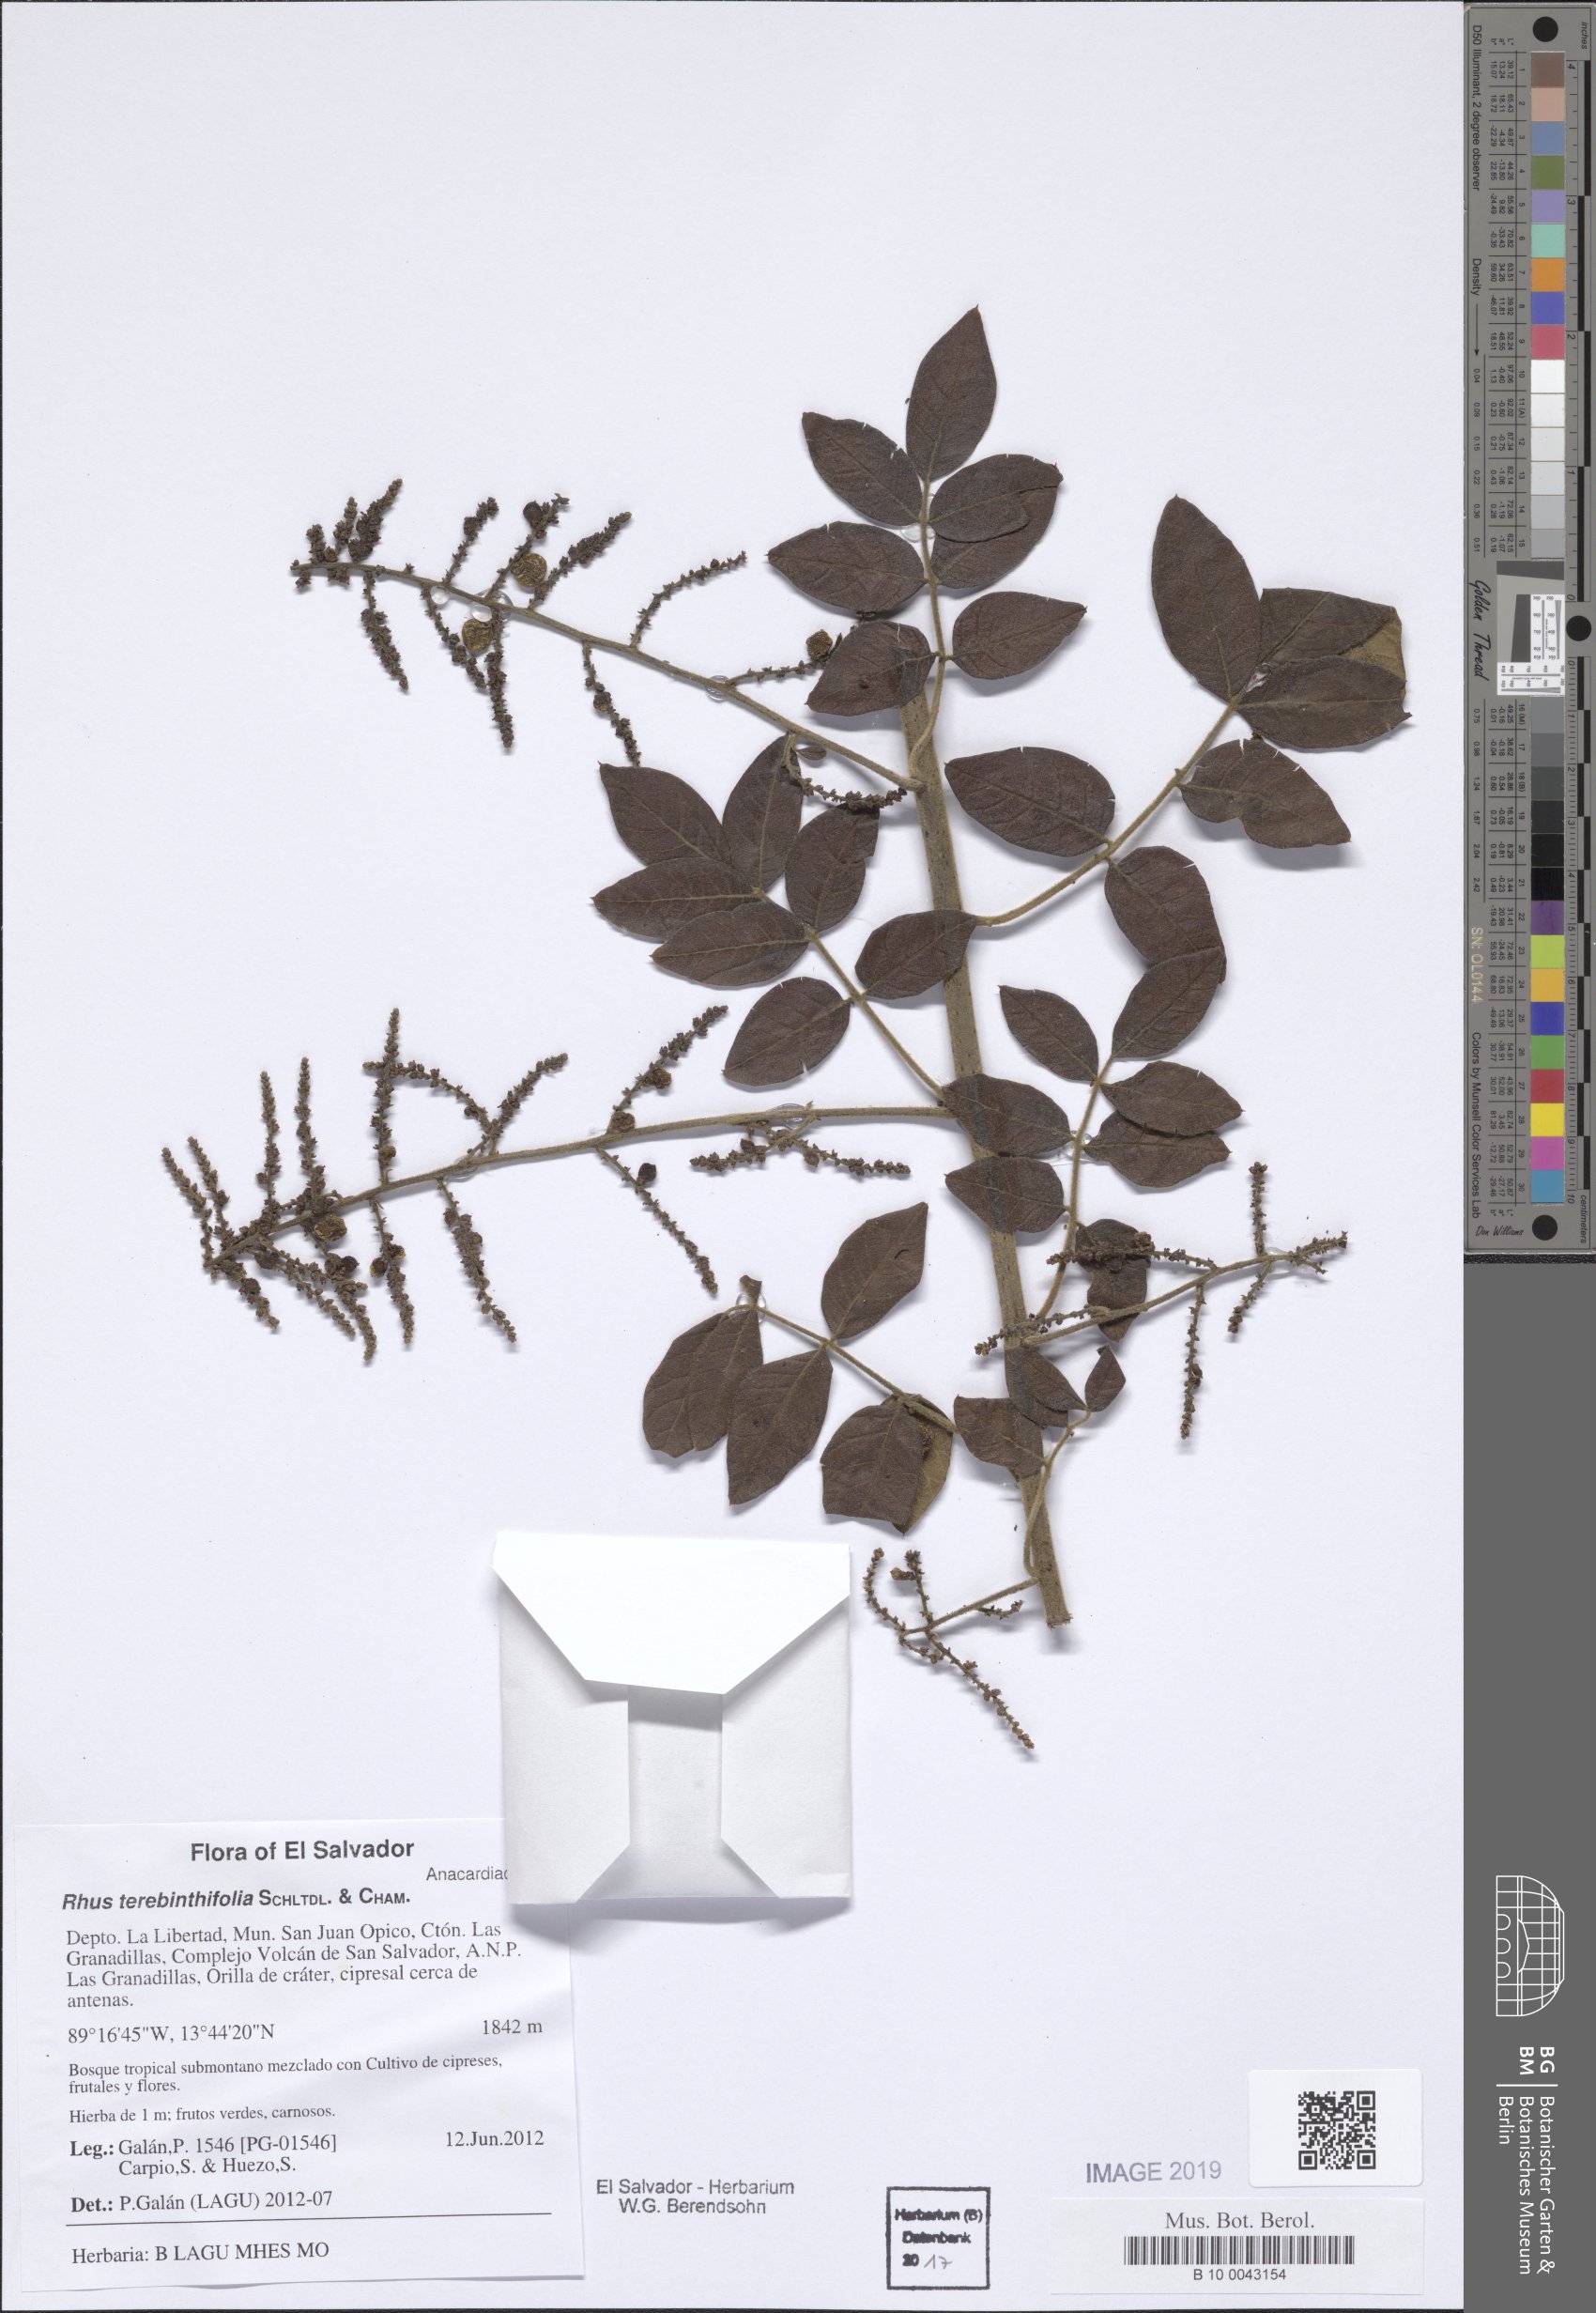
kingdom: Plantae
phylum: Tracheophyta
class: Magnoliopsida
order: Sapindales
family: Anacardiaceae
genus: Rhus
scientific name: Rhus terebinthifolia
